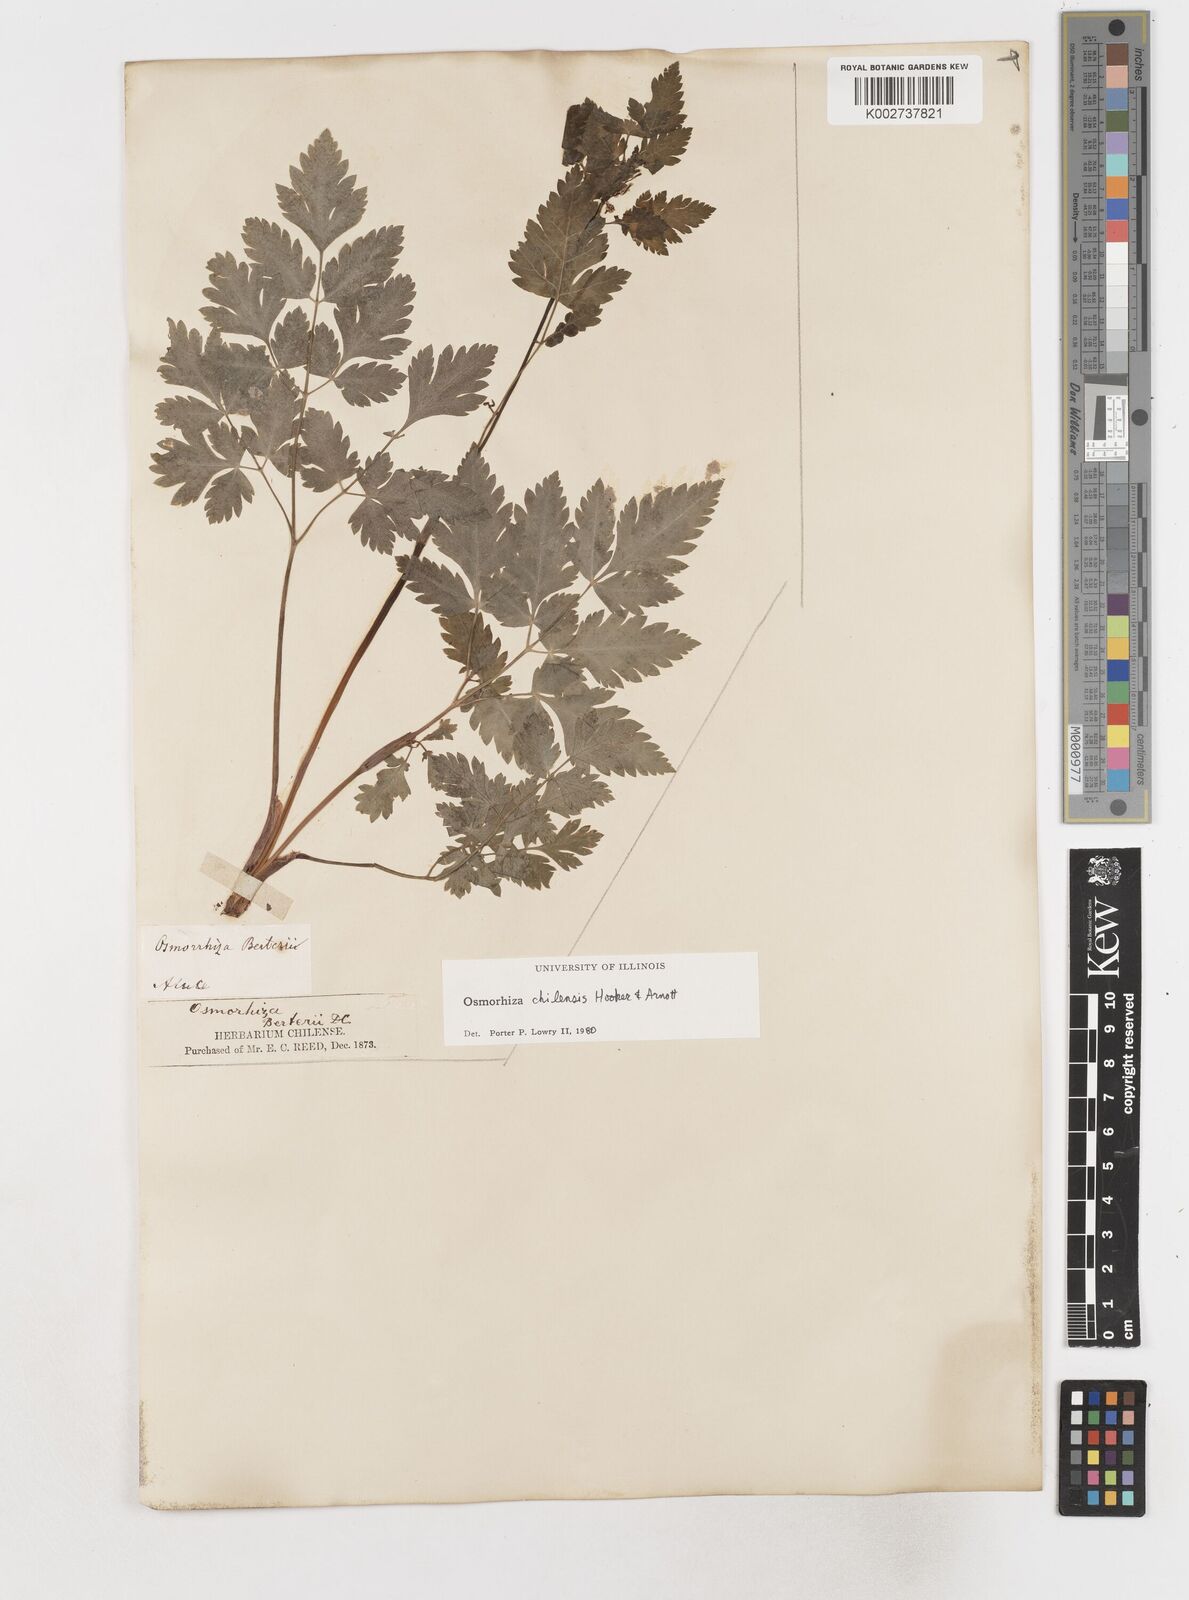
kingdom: Plantae
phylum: Tracheophyta
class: Magnoliopsida
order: Apiales
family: Apiaceae
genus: Osmorhiza
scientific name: Osmorhiza berteroi
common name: Mountain sweet cicely
